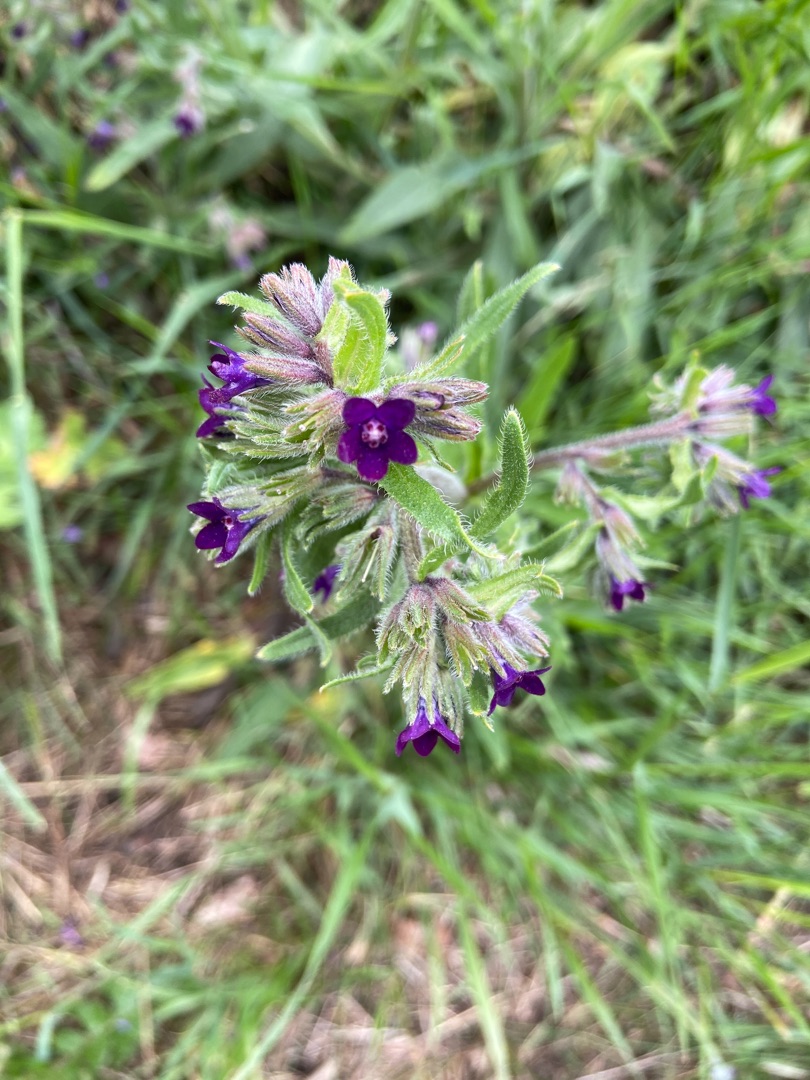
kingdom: Plantae
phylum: Tracheophyta
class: Magnoliopsida
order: Boraginales
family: Boraginaceae
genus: Anchusa
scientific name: Anchusa officinalis
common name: Læge-oksetunge
